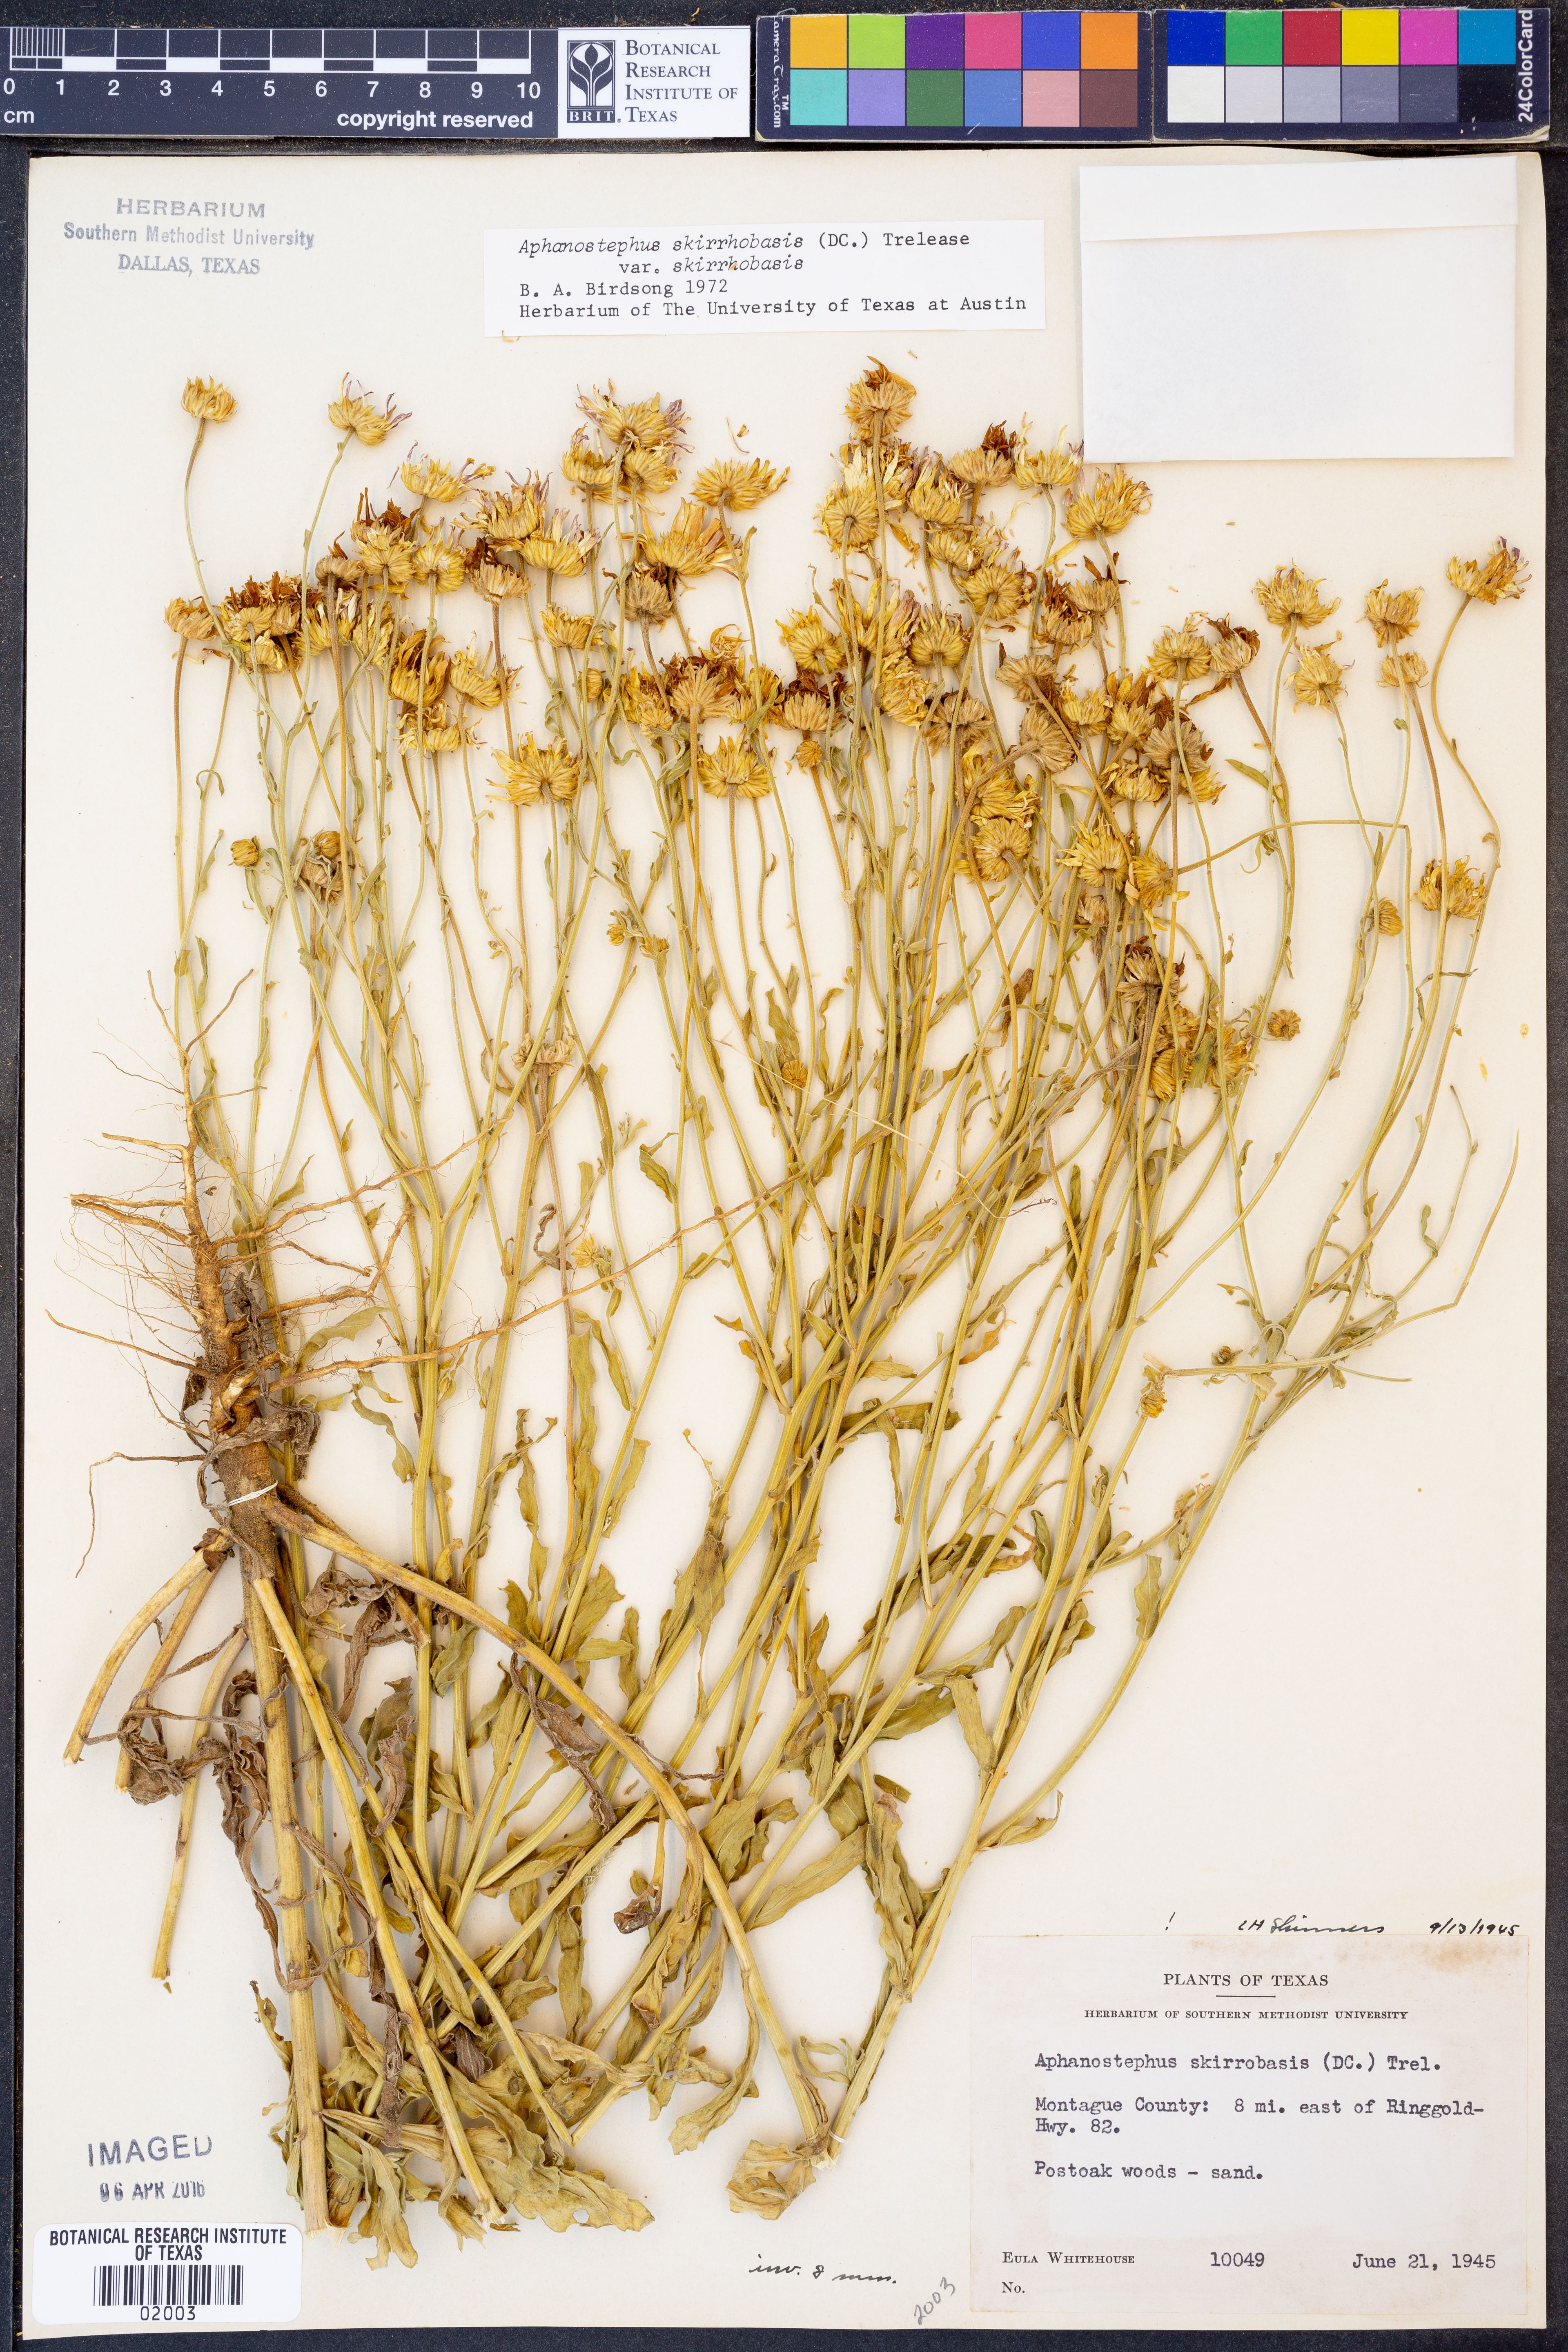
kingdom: Plantae
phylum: Tracheophyta
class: Magnoliopsida
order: Asterales
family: Asteraceae
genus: Aphanostephus
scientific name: Aphanostephus skirrhobasis
